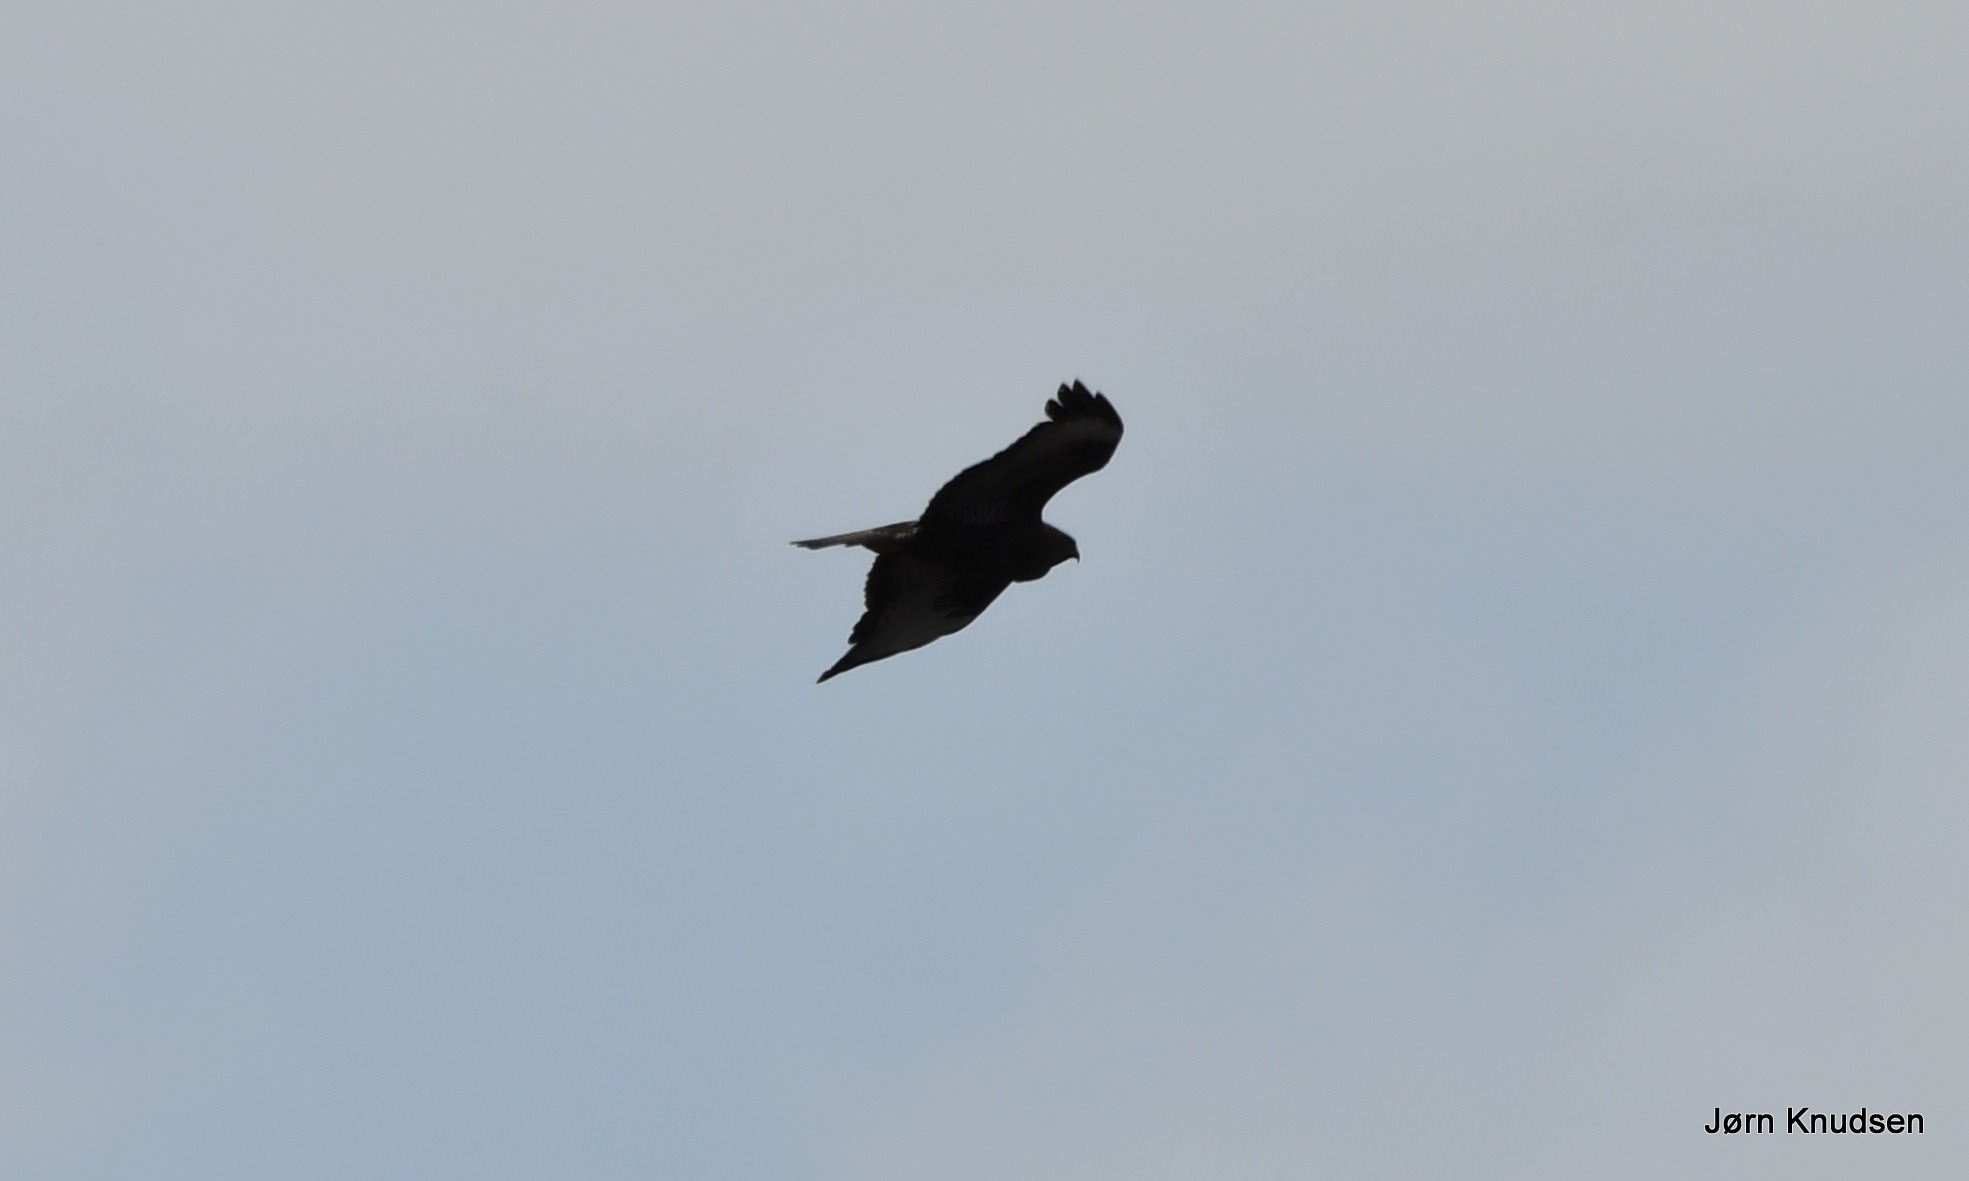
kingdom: Animalia
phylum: Chordata
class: Aves
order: Accipitriformes
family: Accipitridae
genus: Buteo
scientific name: Buteo buteo
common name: Musvåge
